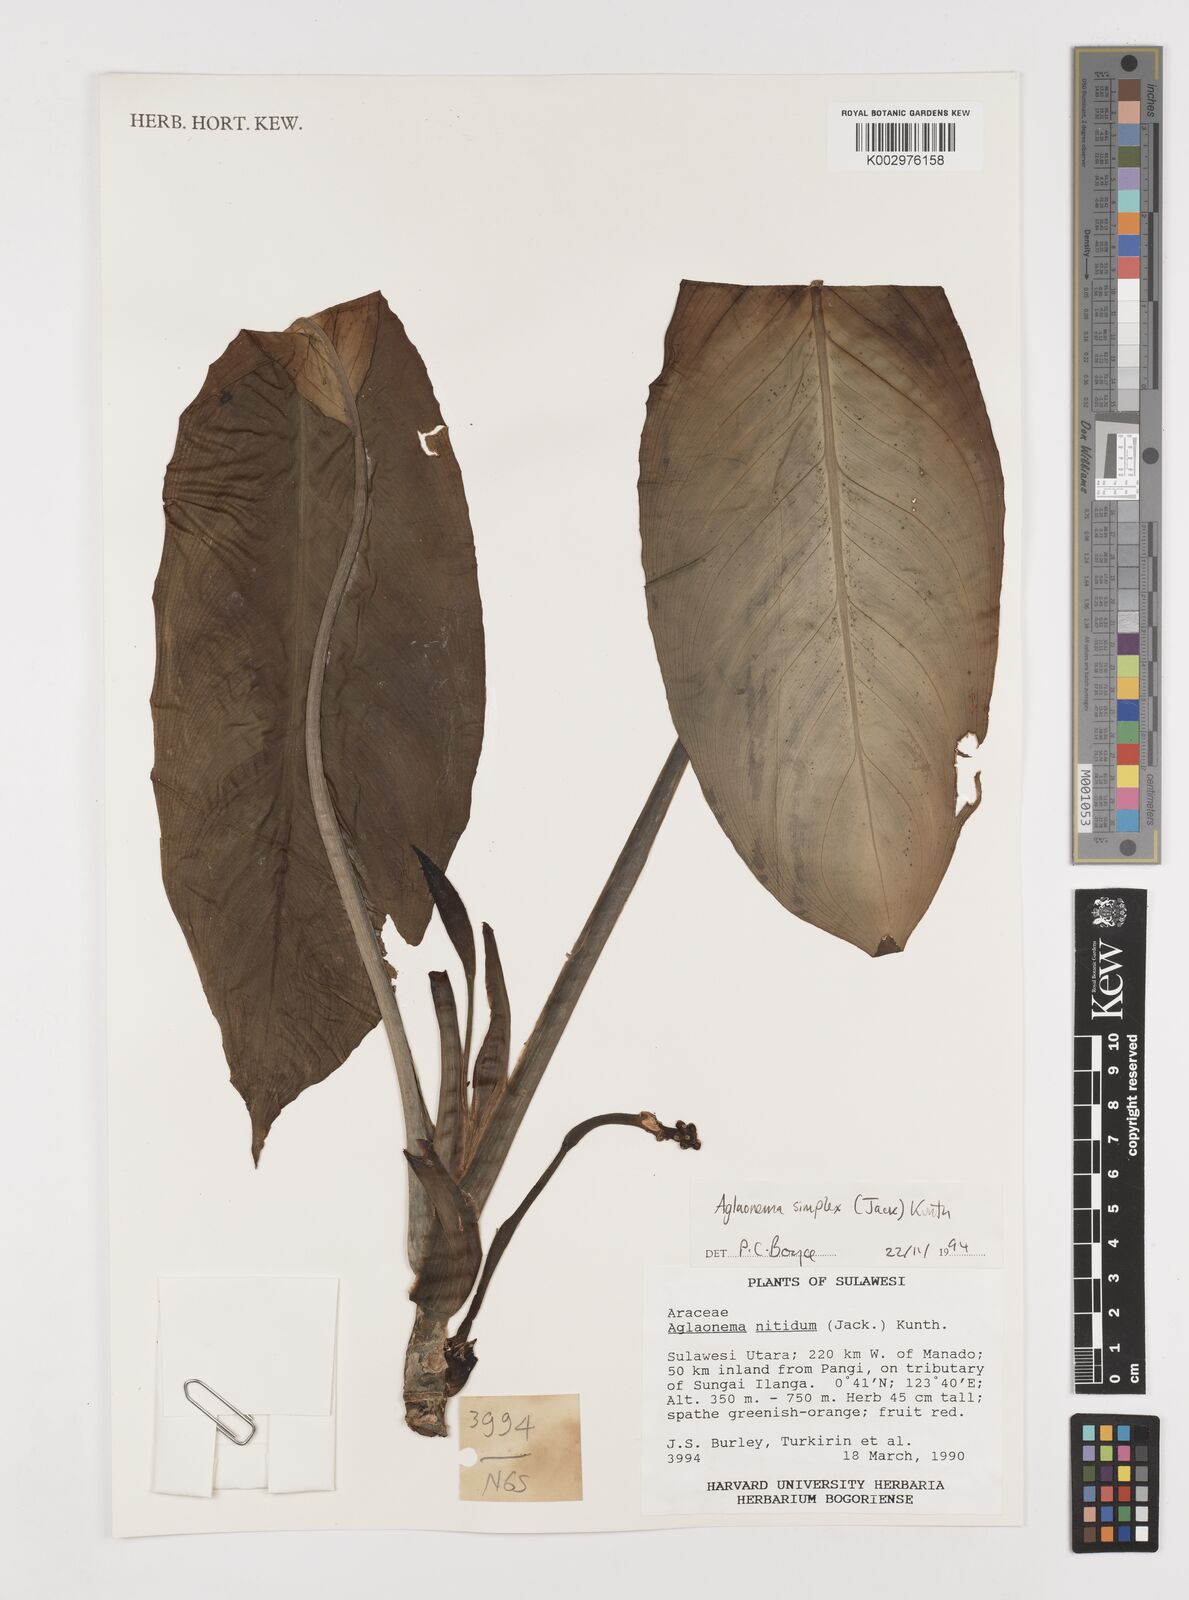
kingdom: Plantae
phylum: Tracheophyta
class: Liliopsida
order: Alismatales
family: Araceae
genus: Aglaonema
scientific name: Aglaonema simplex
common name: Malayan-sword
